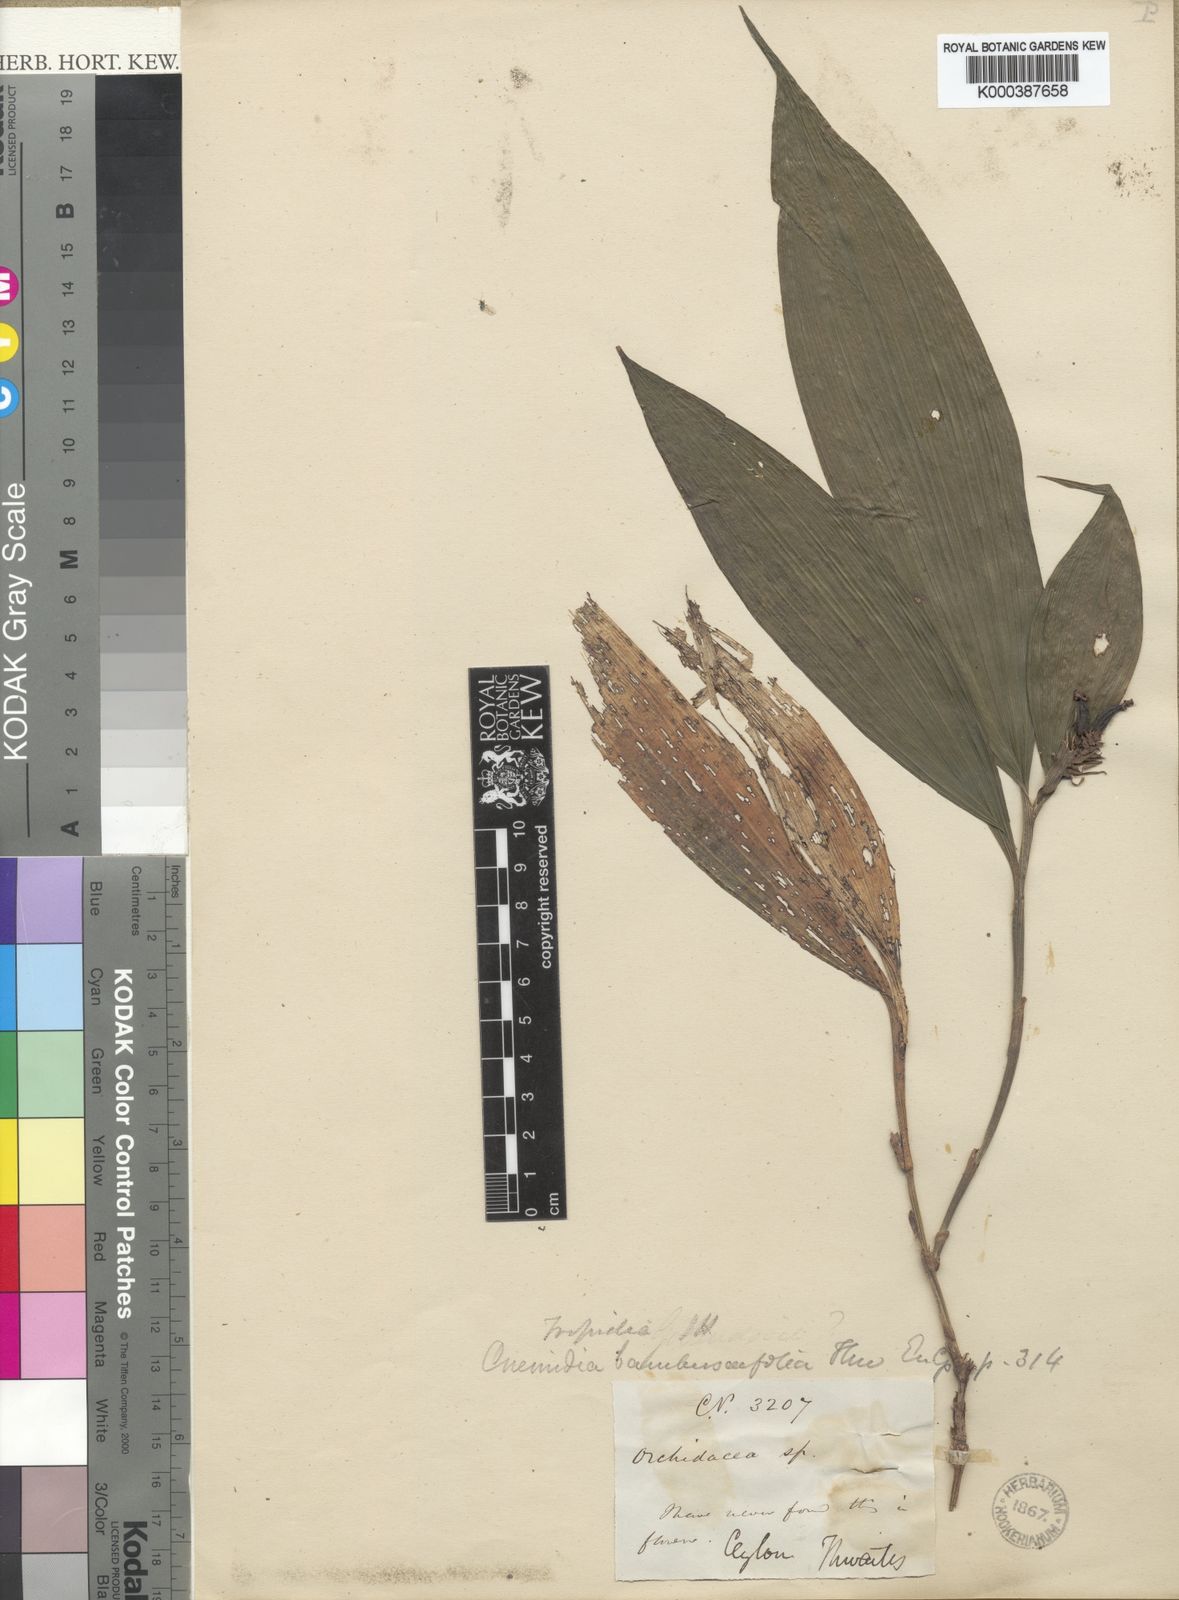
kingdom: Plantae
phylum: Tracheophyta
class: Liliopsida
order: Asparagales
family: Orchidaceae
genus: Tropidia
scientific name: Tropidia bambusifolia
